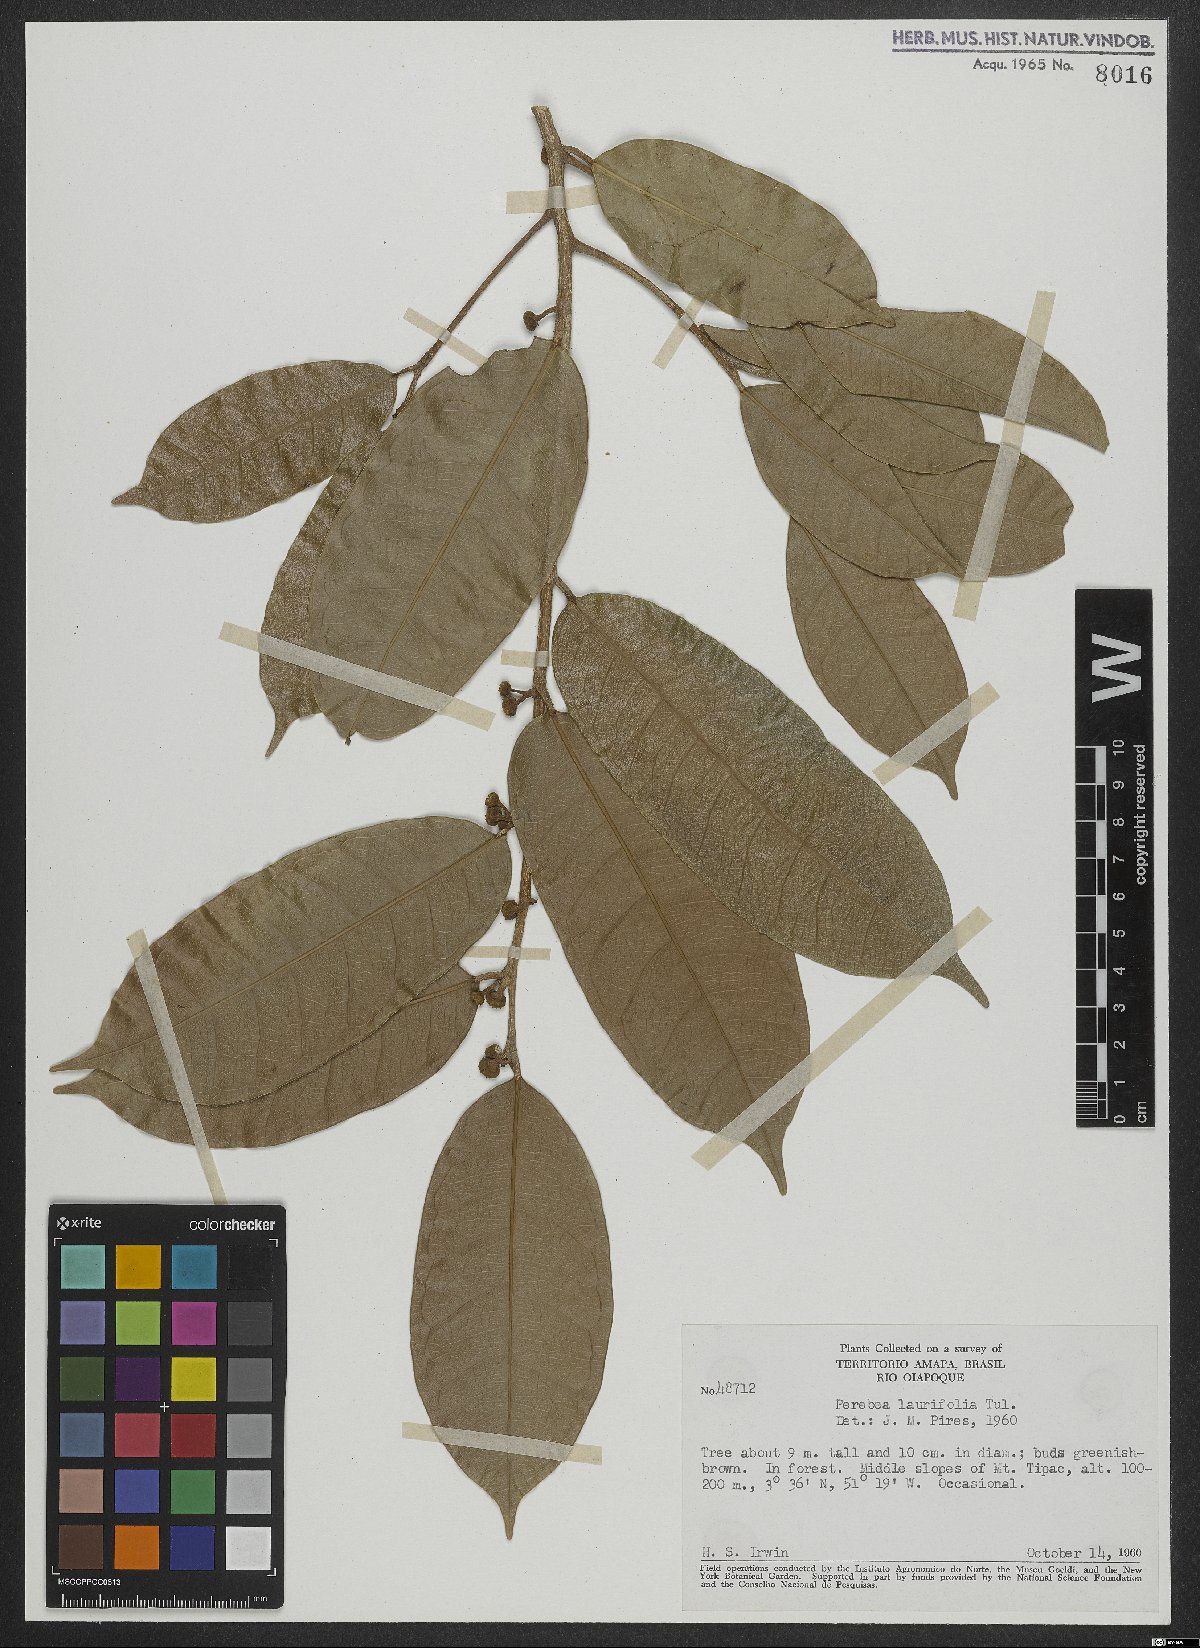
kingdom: Plantae
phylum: Tracheophyta
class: Magnoliopsida
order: Rosales
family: Moraceae
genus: Maquira
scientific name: Maquira guianensis
